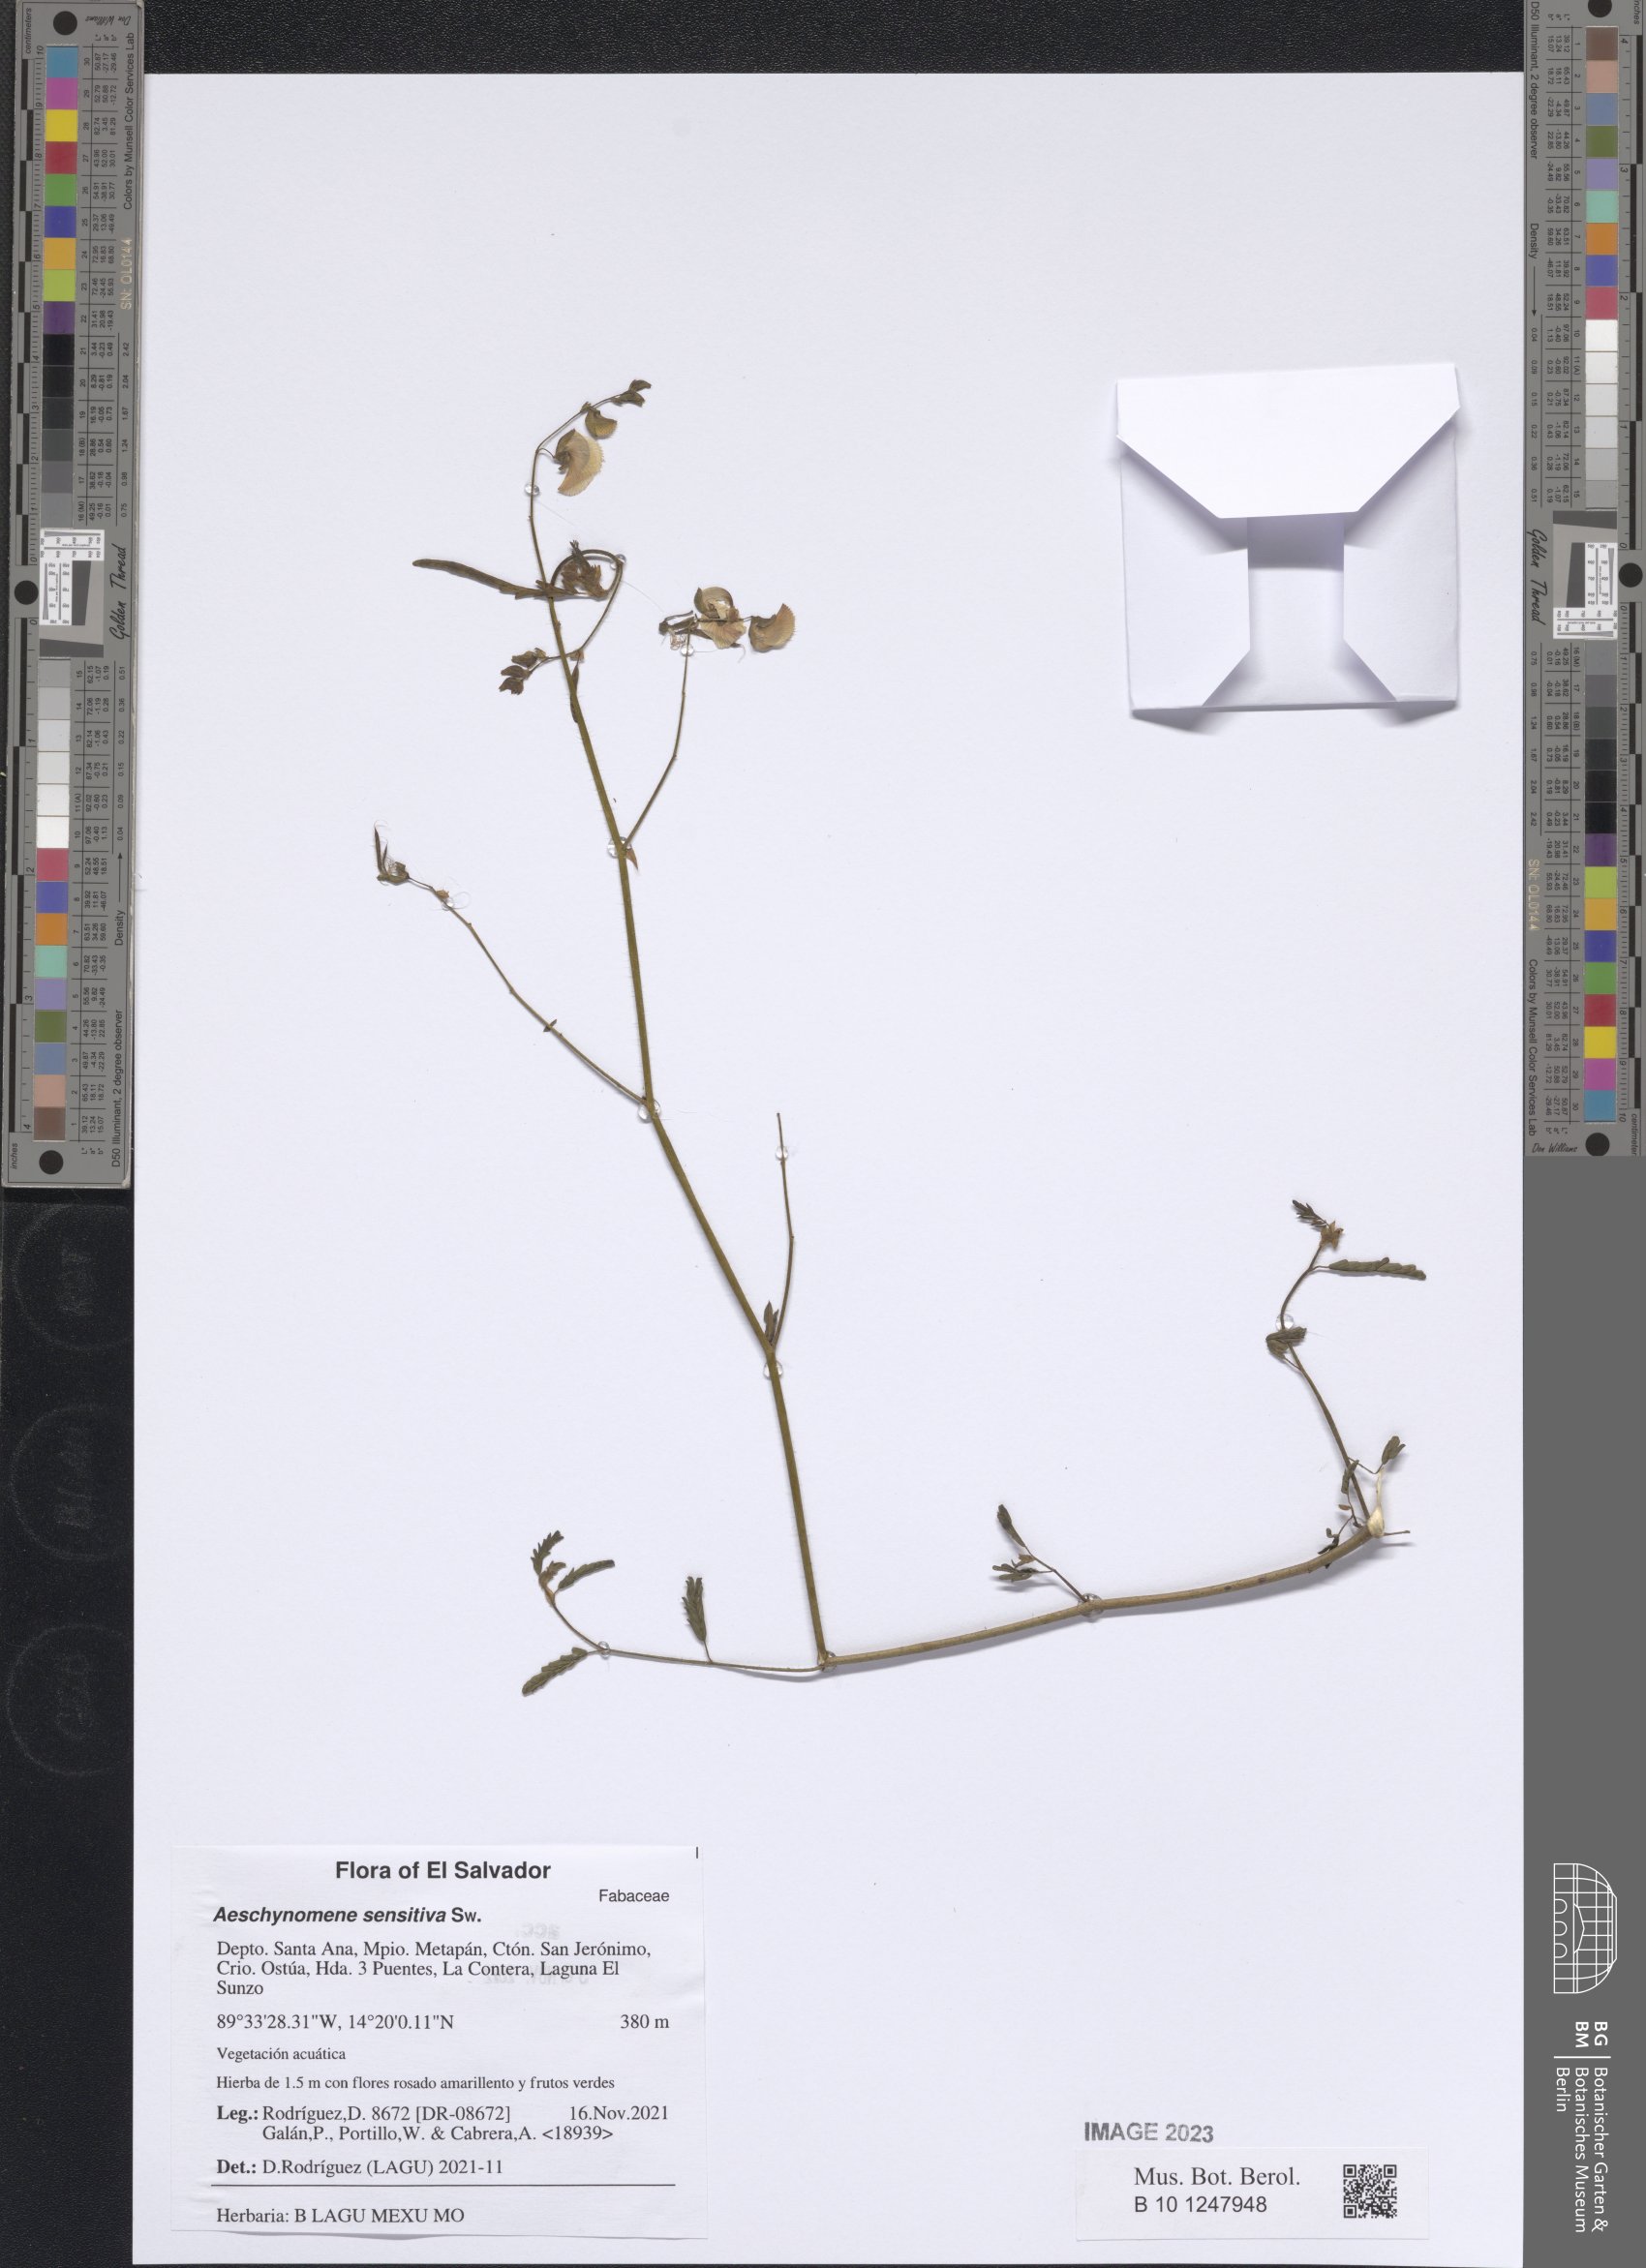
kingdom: Plantae
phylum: Tracheophyta
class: Magnoliopsida
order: Fabales
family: Fabaceae
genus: Aeschynomene
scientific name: Aeschynomene sensitiva
